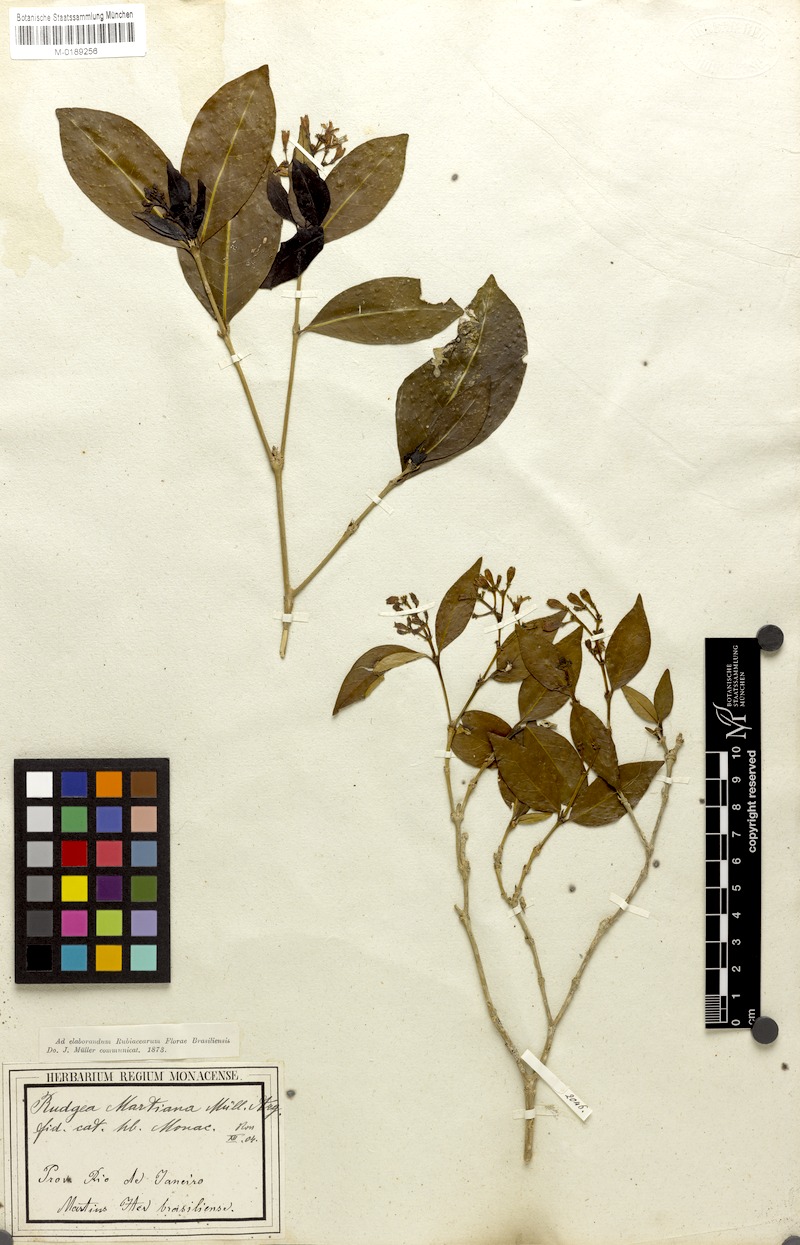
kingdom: Plantae
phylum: Tracheophyta
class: Magnoliopsida
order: Gentianales
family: Rubiaceae
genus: Rudgea
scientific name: Rudgea minor
